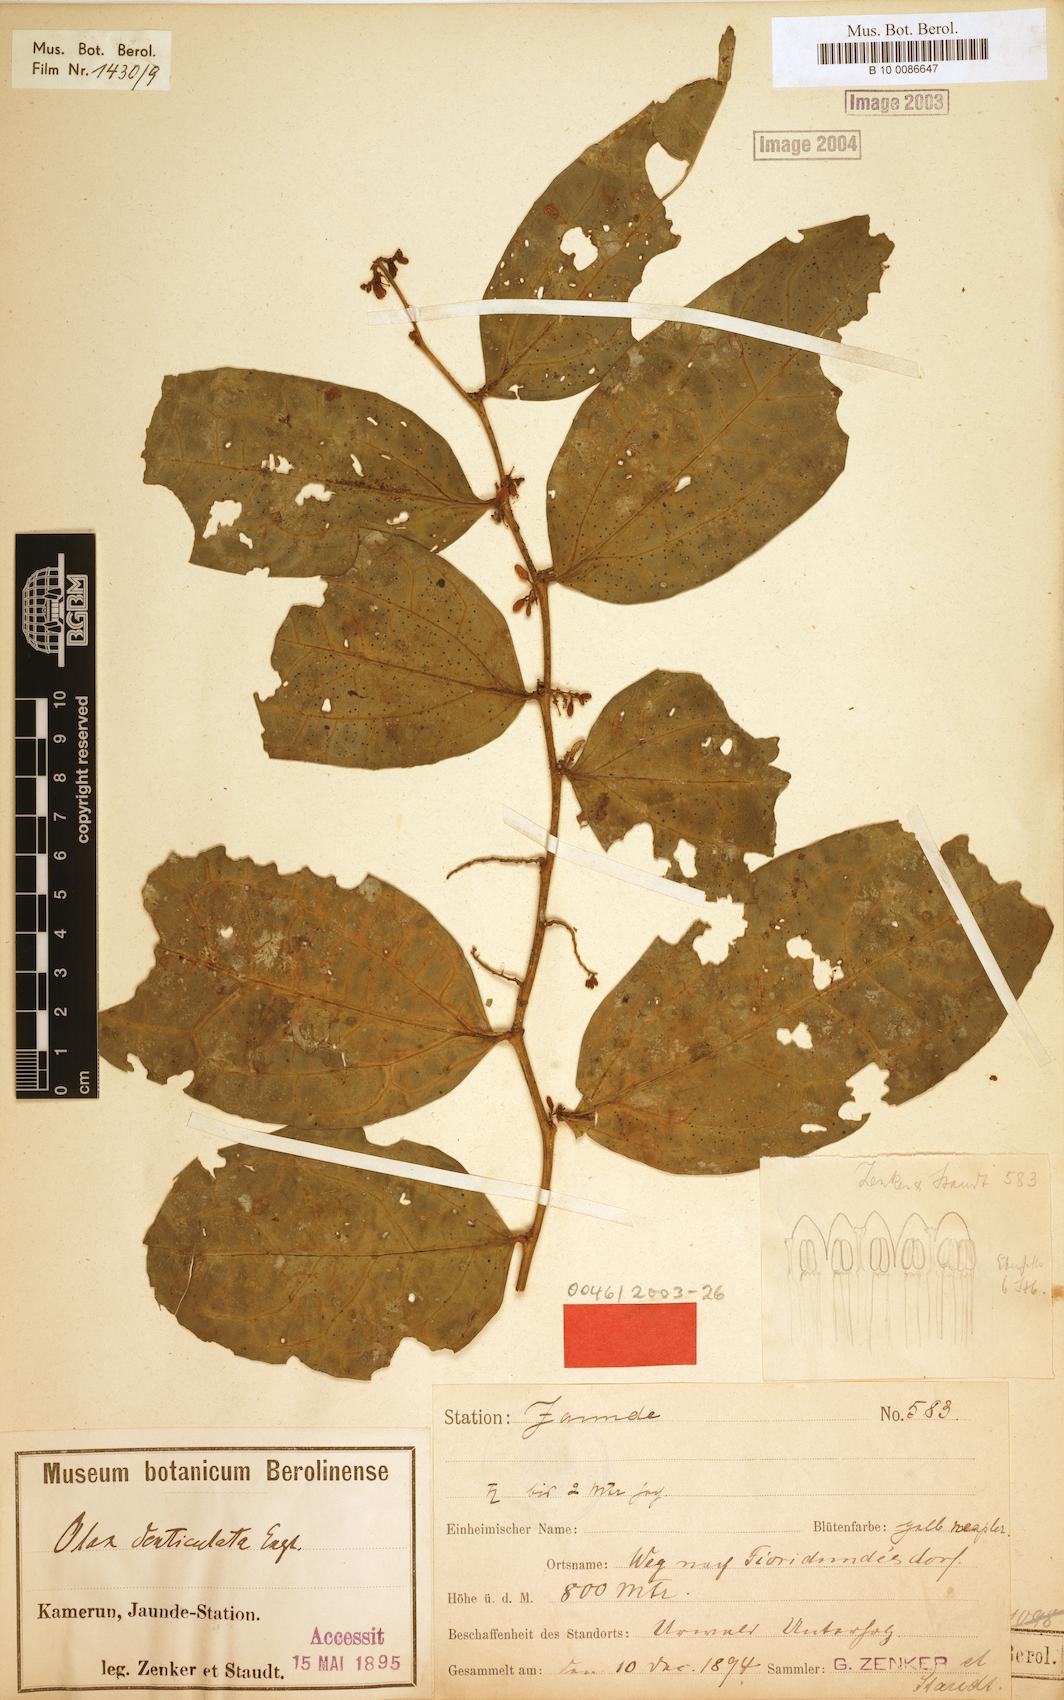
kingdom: Plantae
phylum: Tracheophyta
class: Magnoliopsida
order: Santalales
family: Olacaceae
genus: Olax
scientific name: Olax triplinervia
